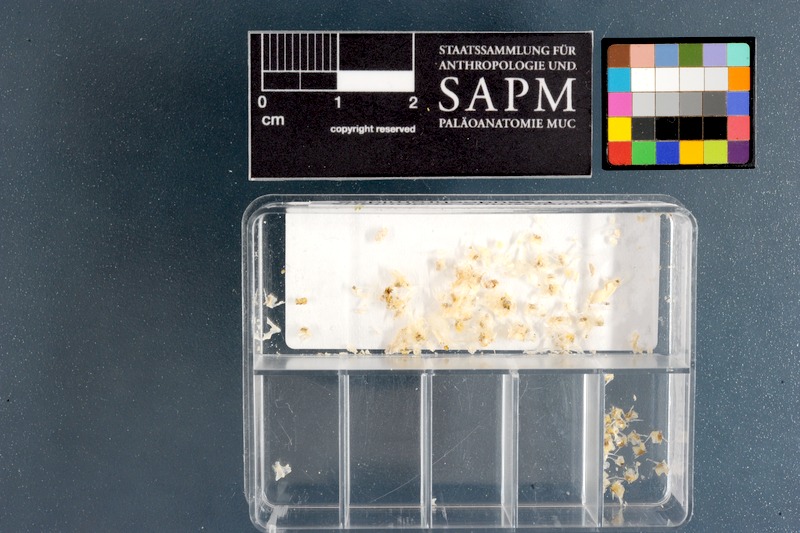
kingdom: Animalia
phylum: Chordata
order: Perciformes
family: Pseudochromidae
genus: Halidesmus
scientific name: Halidesmus scapularis
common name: Snakelet
